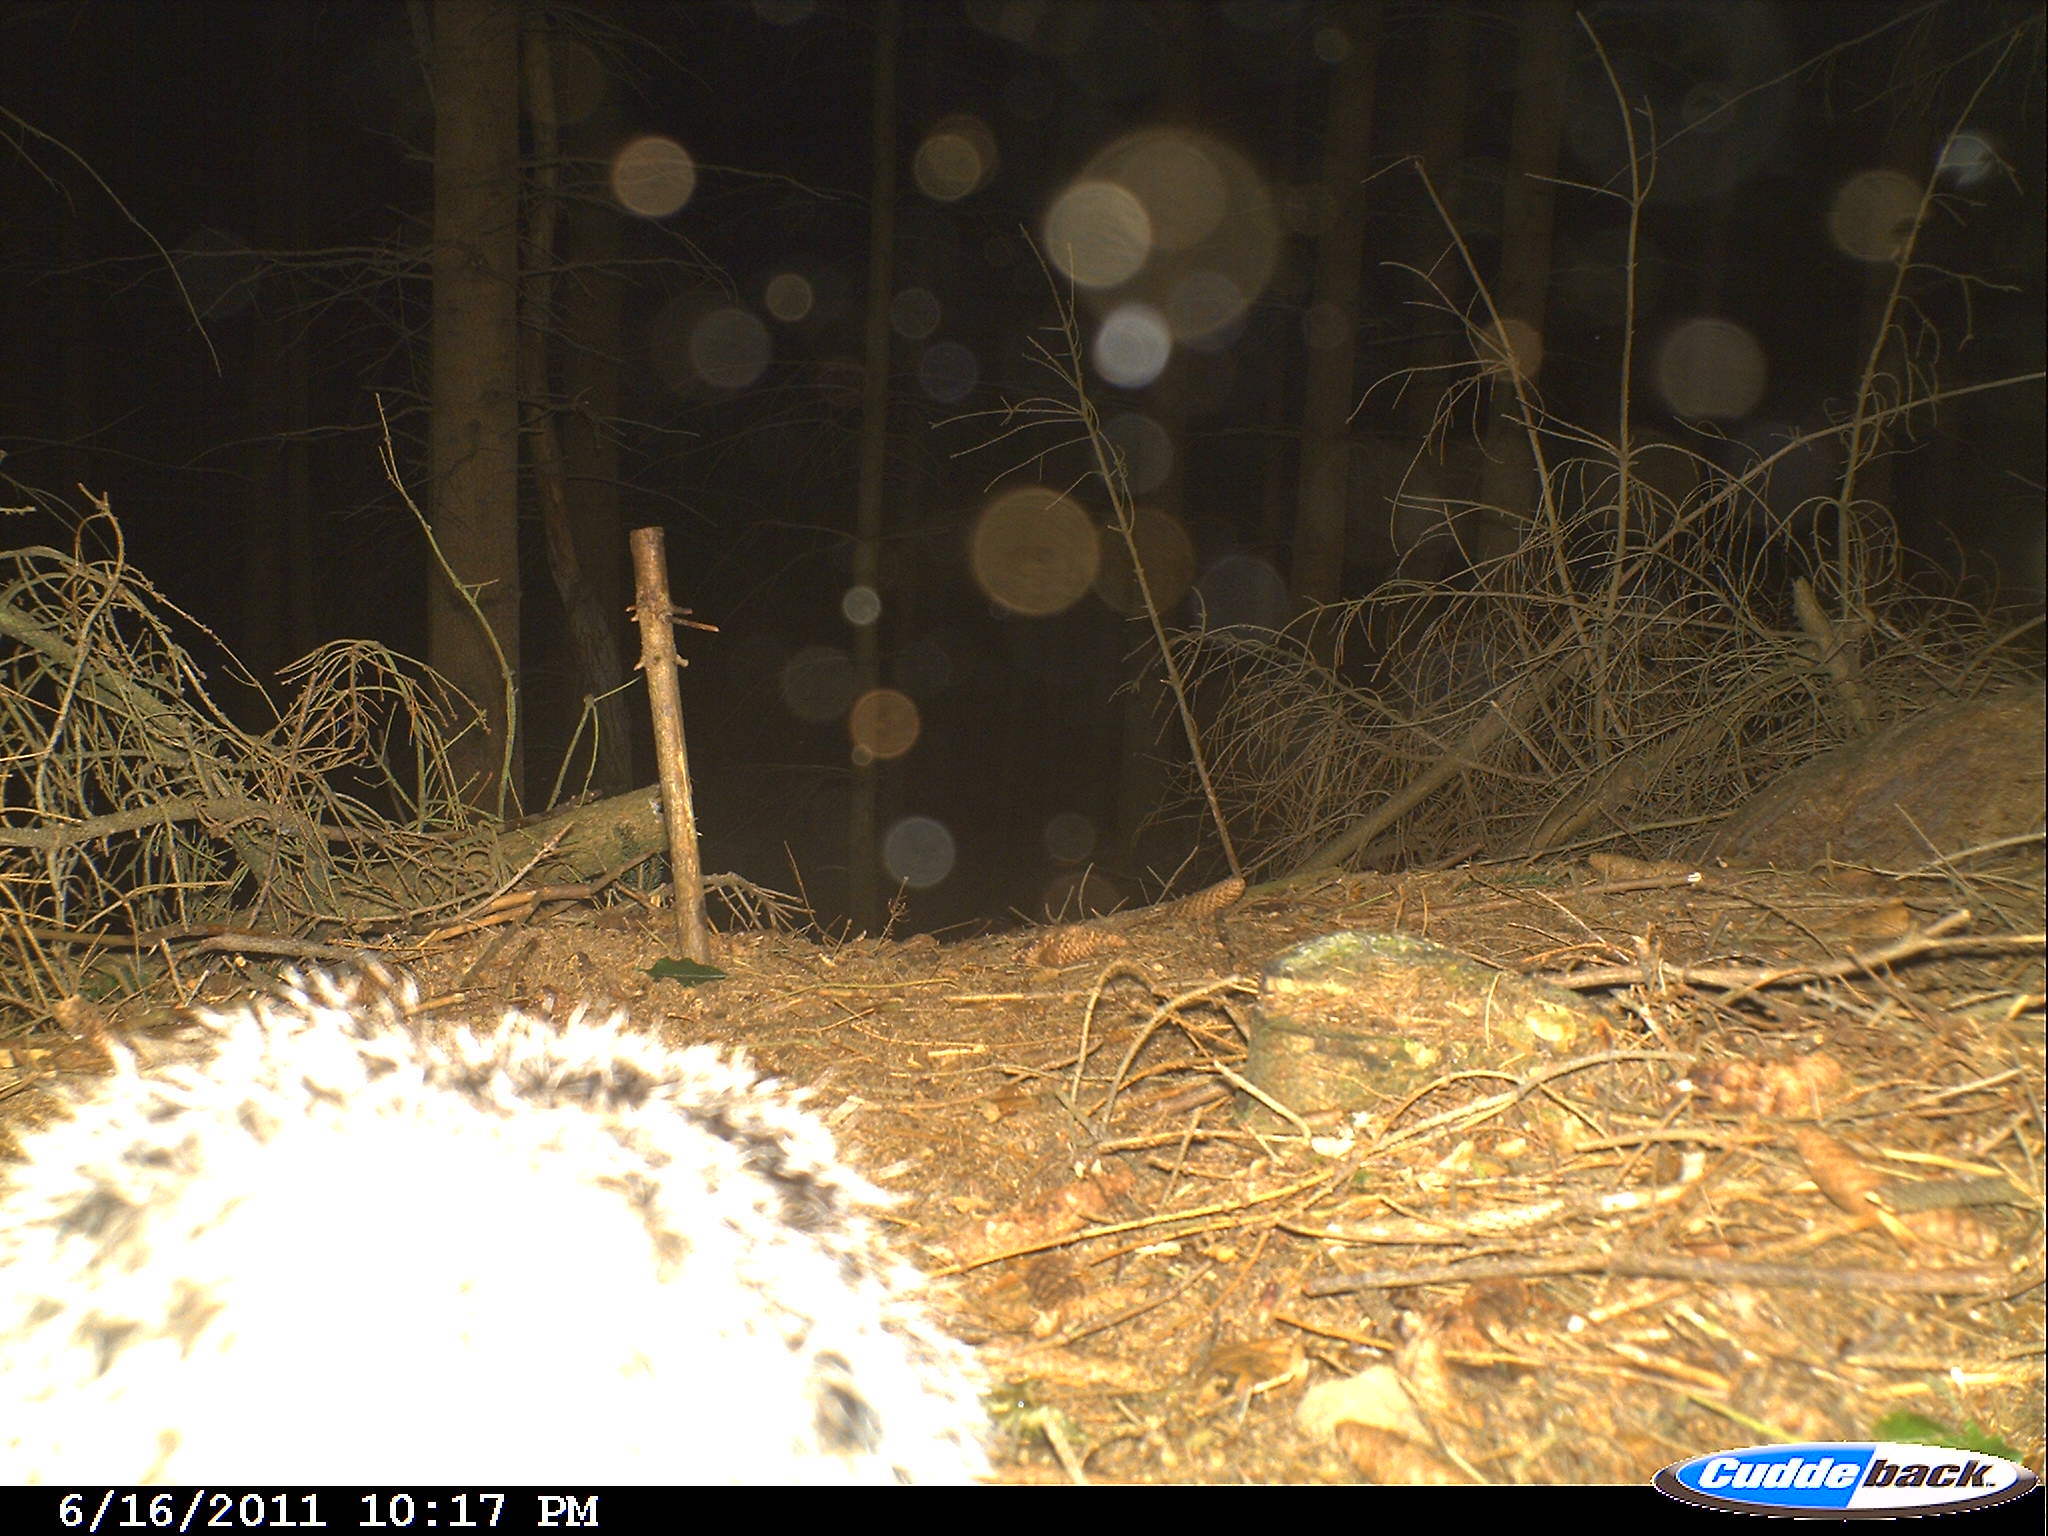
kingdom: Animalia
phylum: Chordata
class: Mammalia
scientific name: Mammalia
